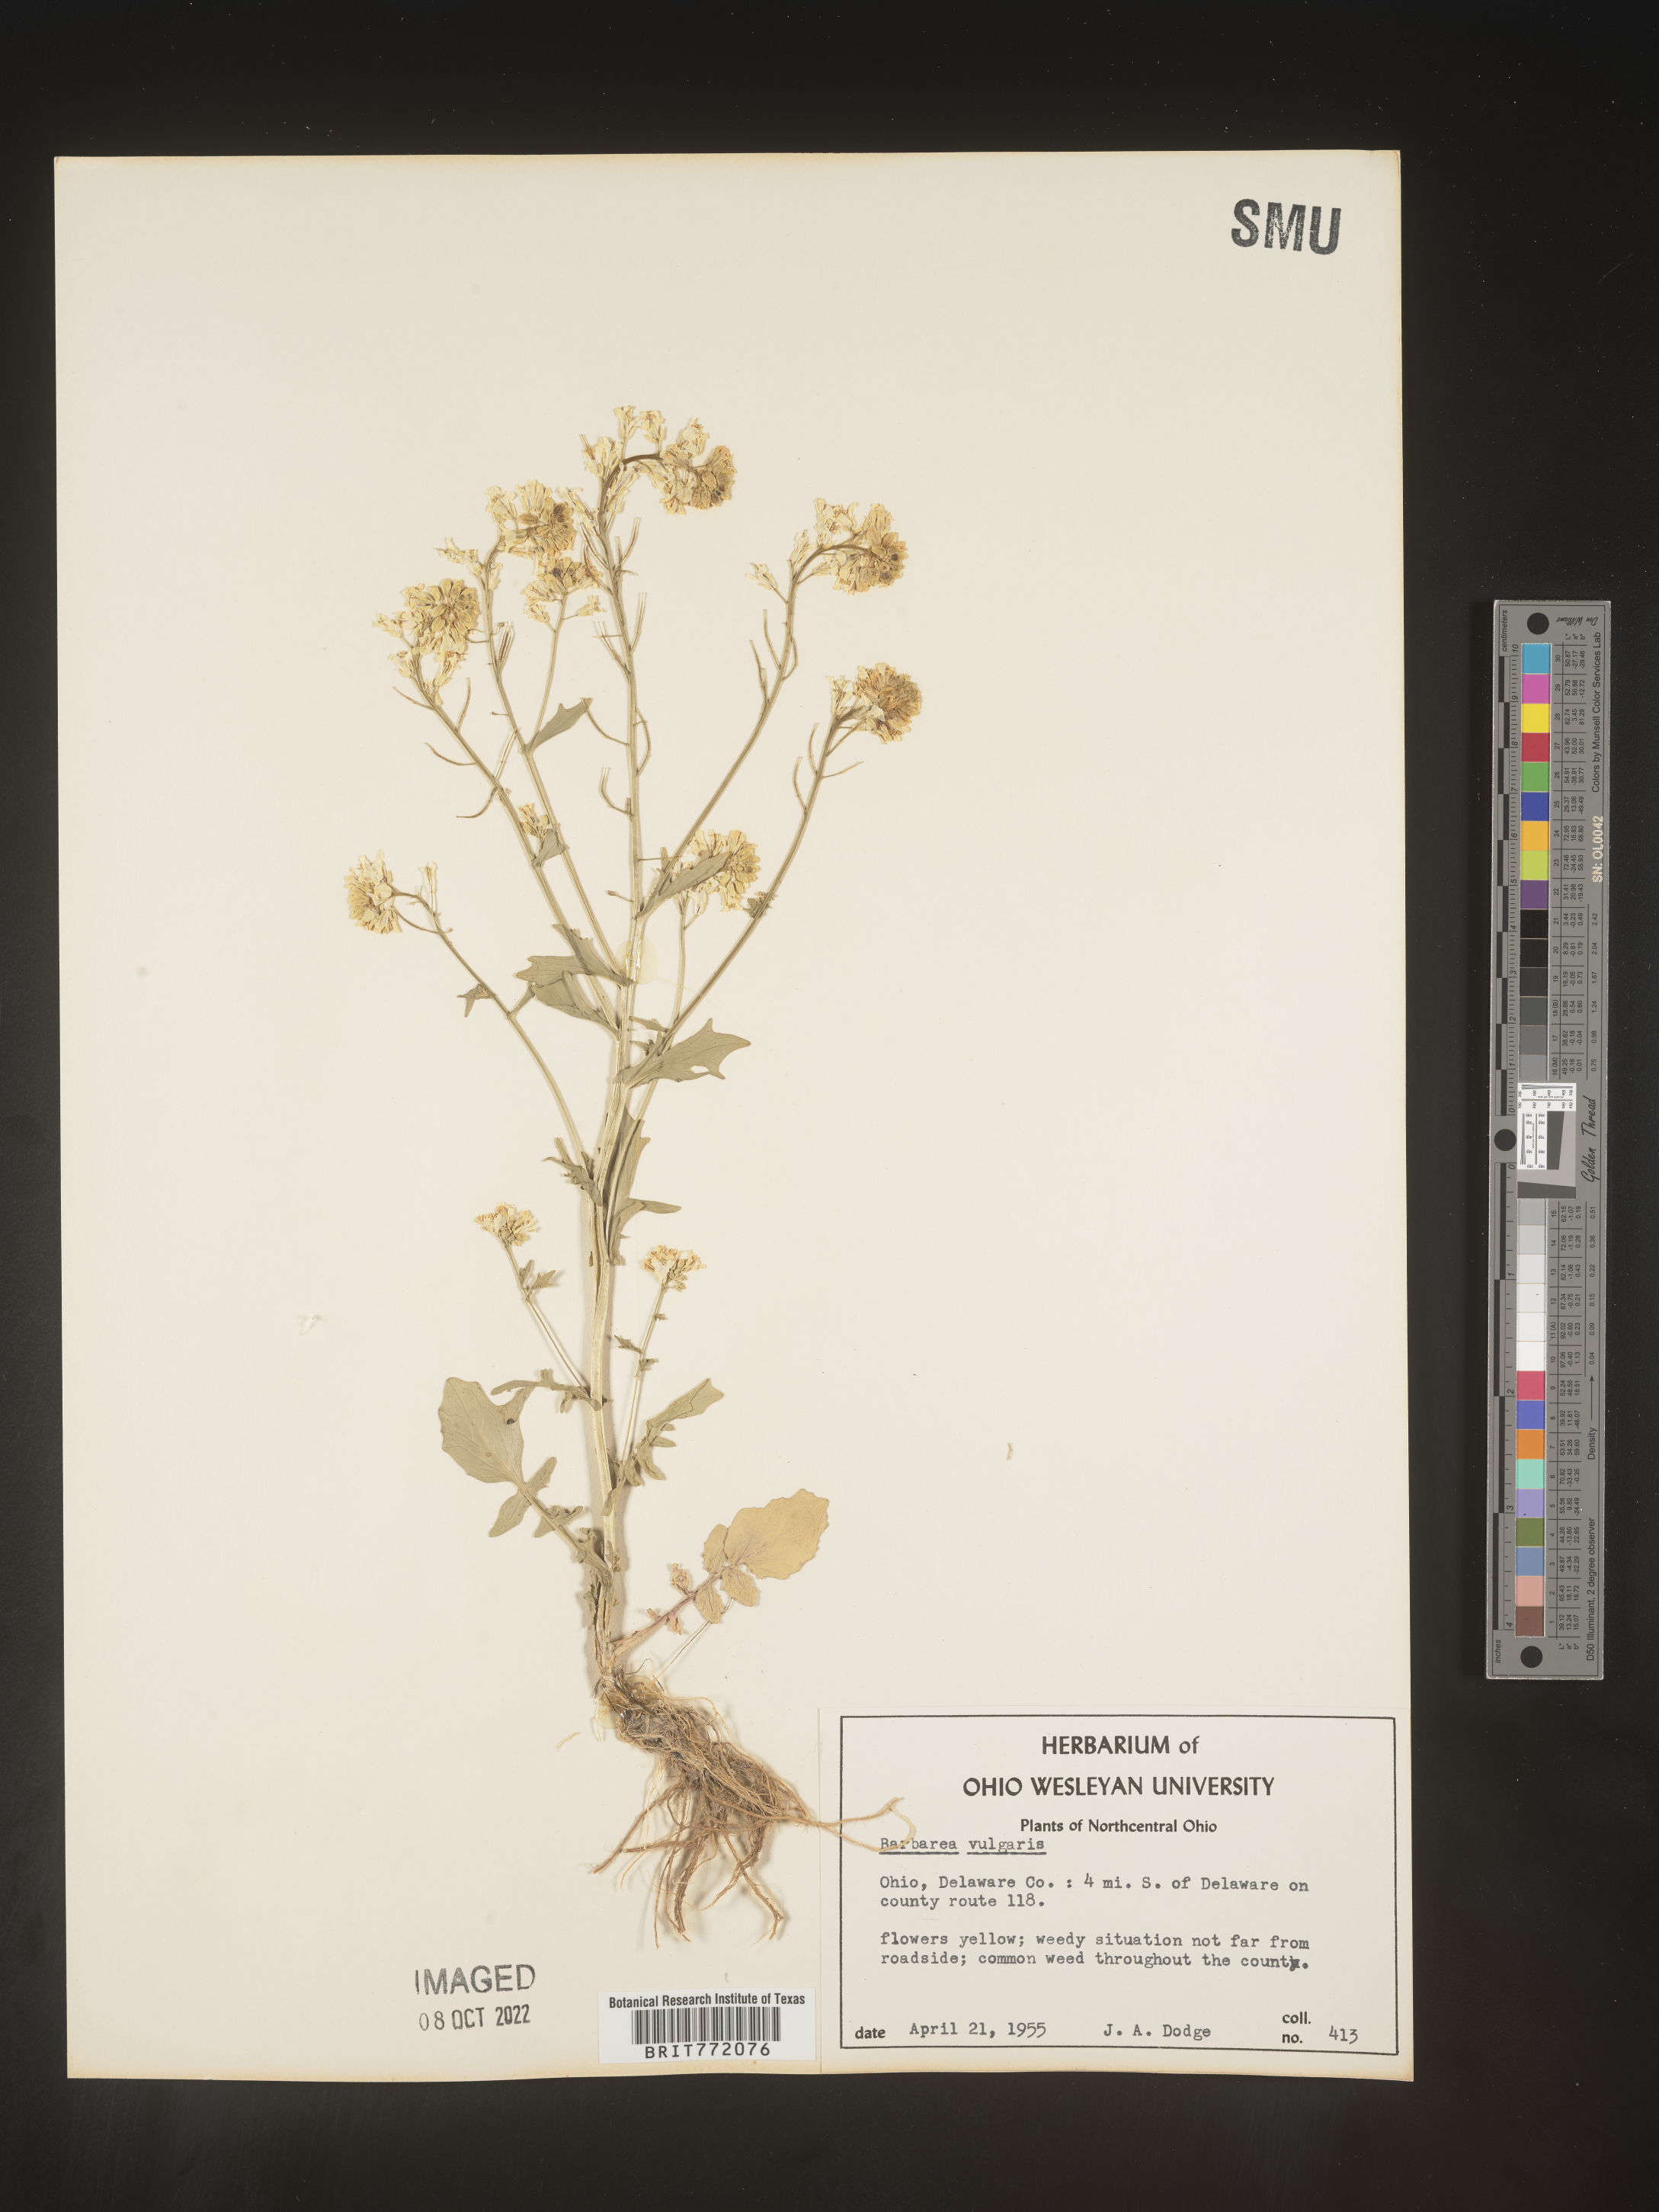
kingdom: Plantae
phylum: Tracheophyta
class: Magnoliopsida
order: Brassicales
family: Brassicaceae
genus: Barbarea
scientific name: Barbarea vulgaris
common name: Cressy-greens
